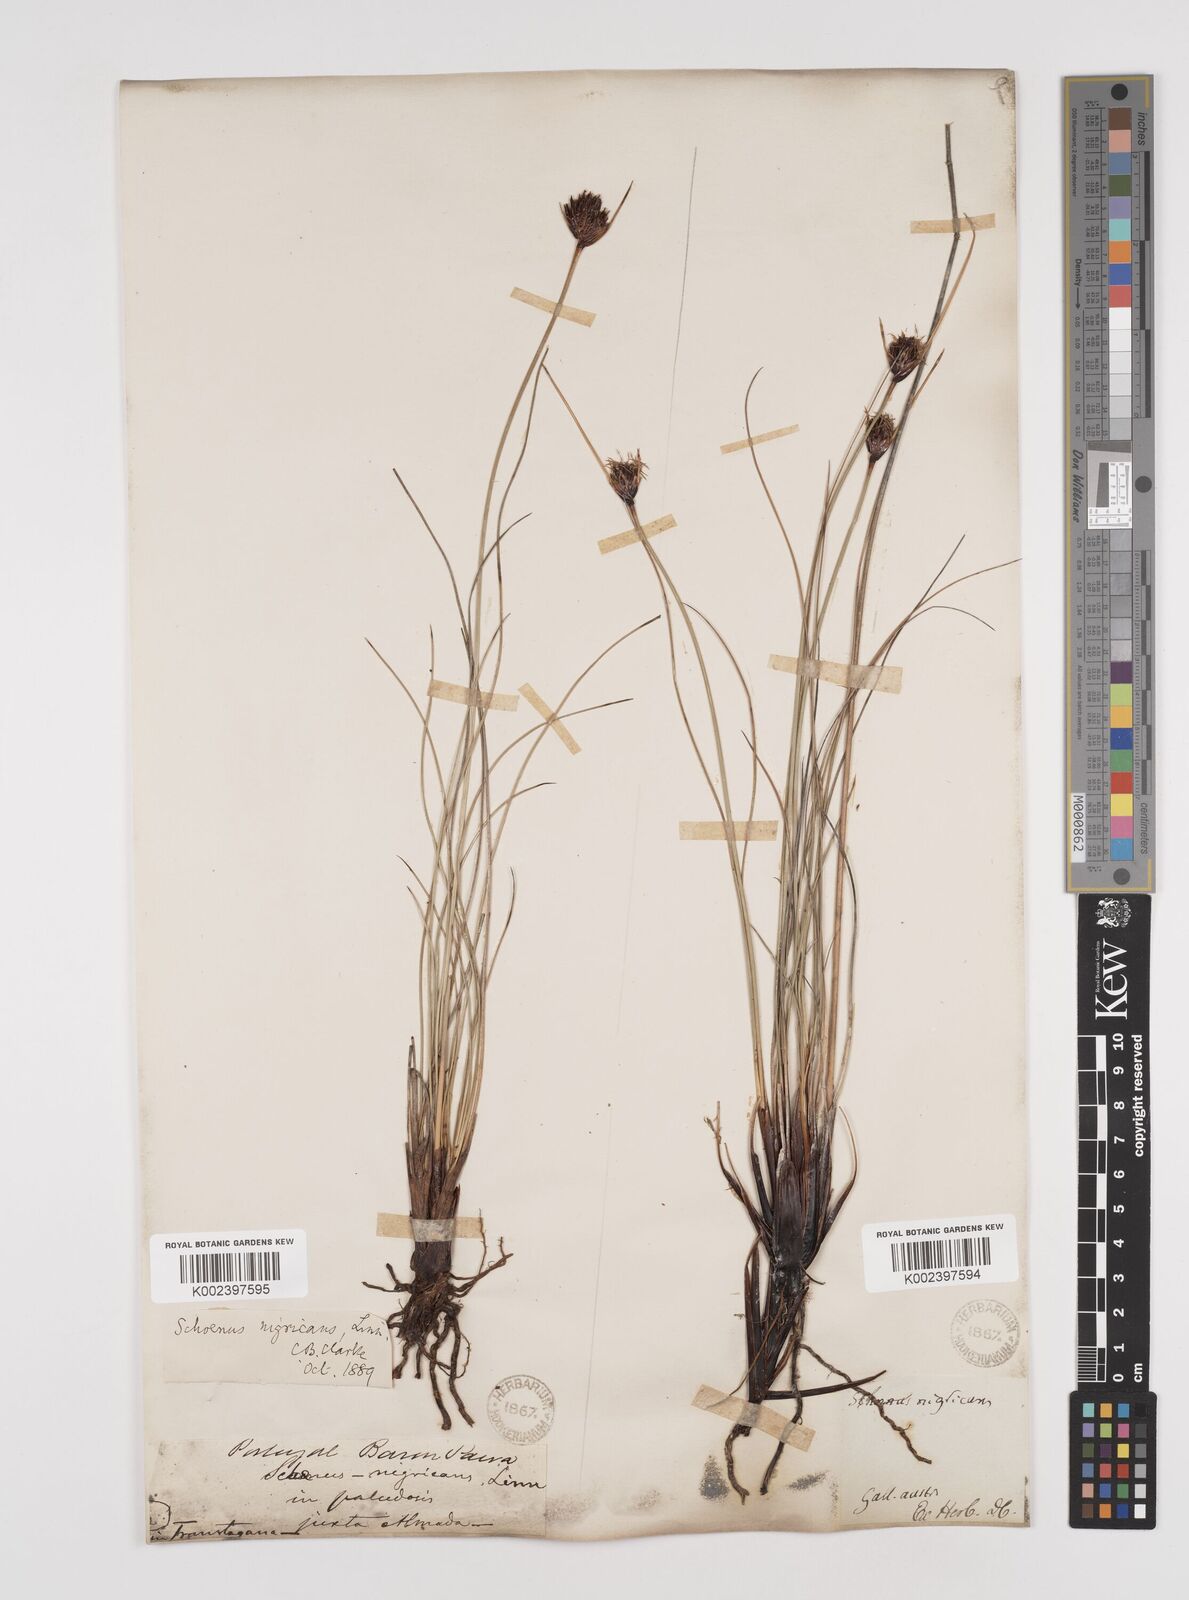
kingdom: Plantae
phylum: Tracheophyta
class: Liliopsida
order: Poales
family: Cyperaceae
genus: Schoenus
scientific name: Schoenus nigricans
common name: Black bog-rush
